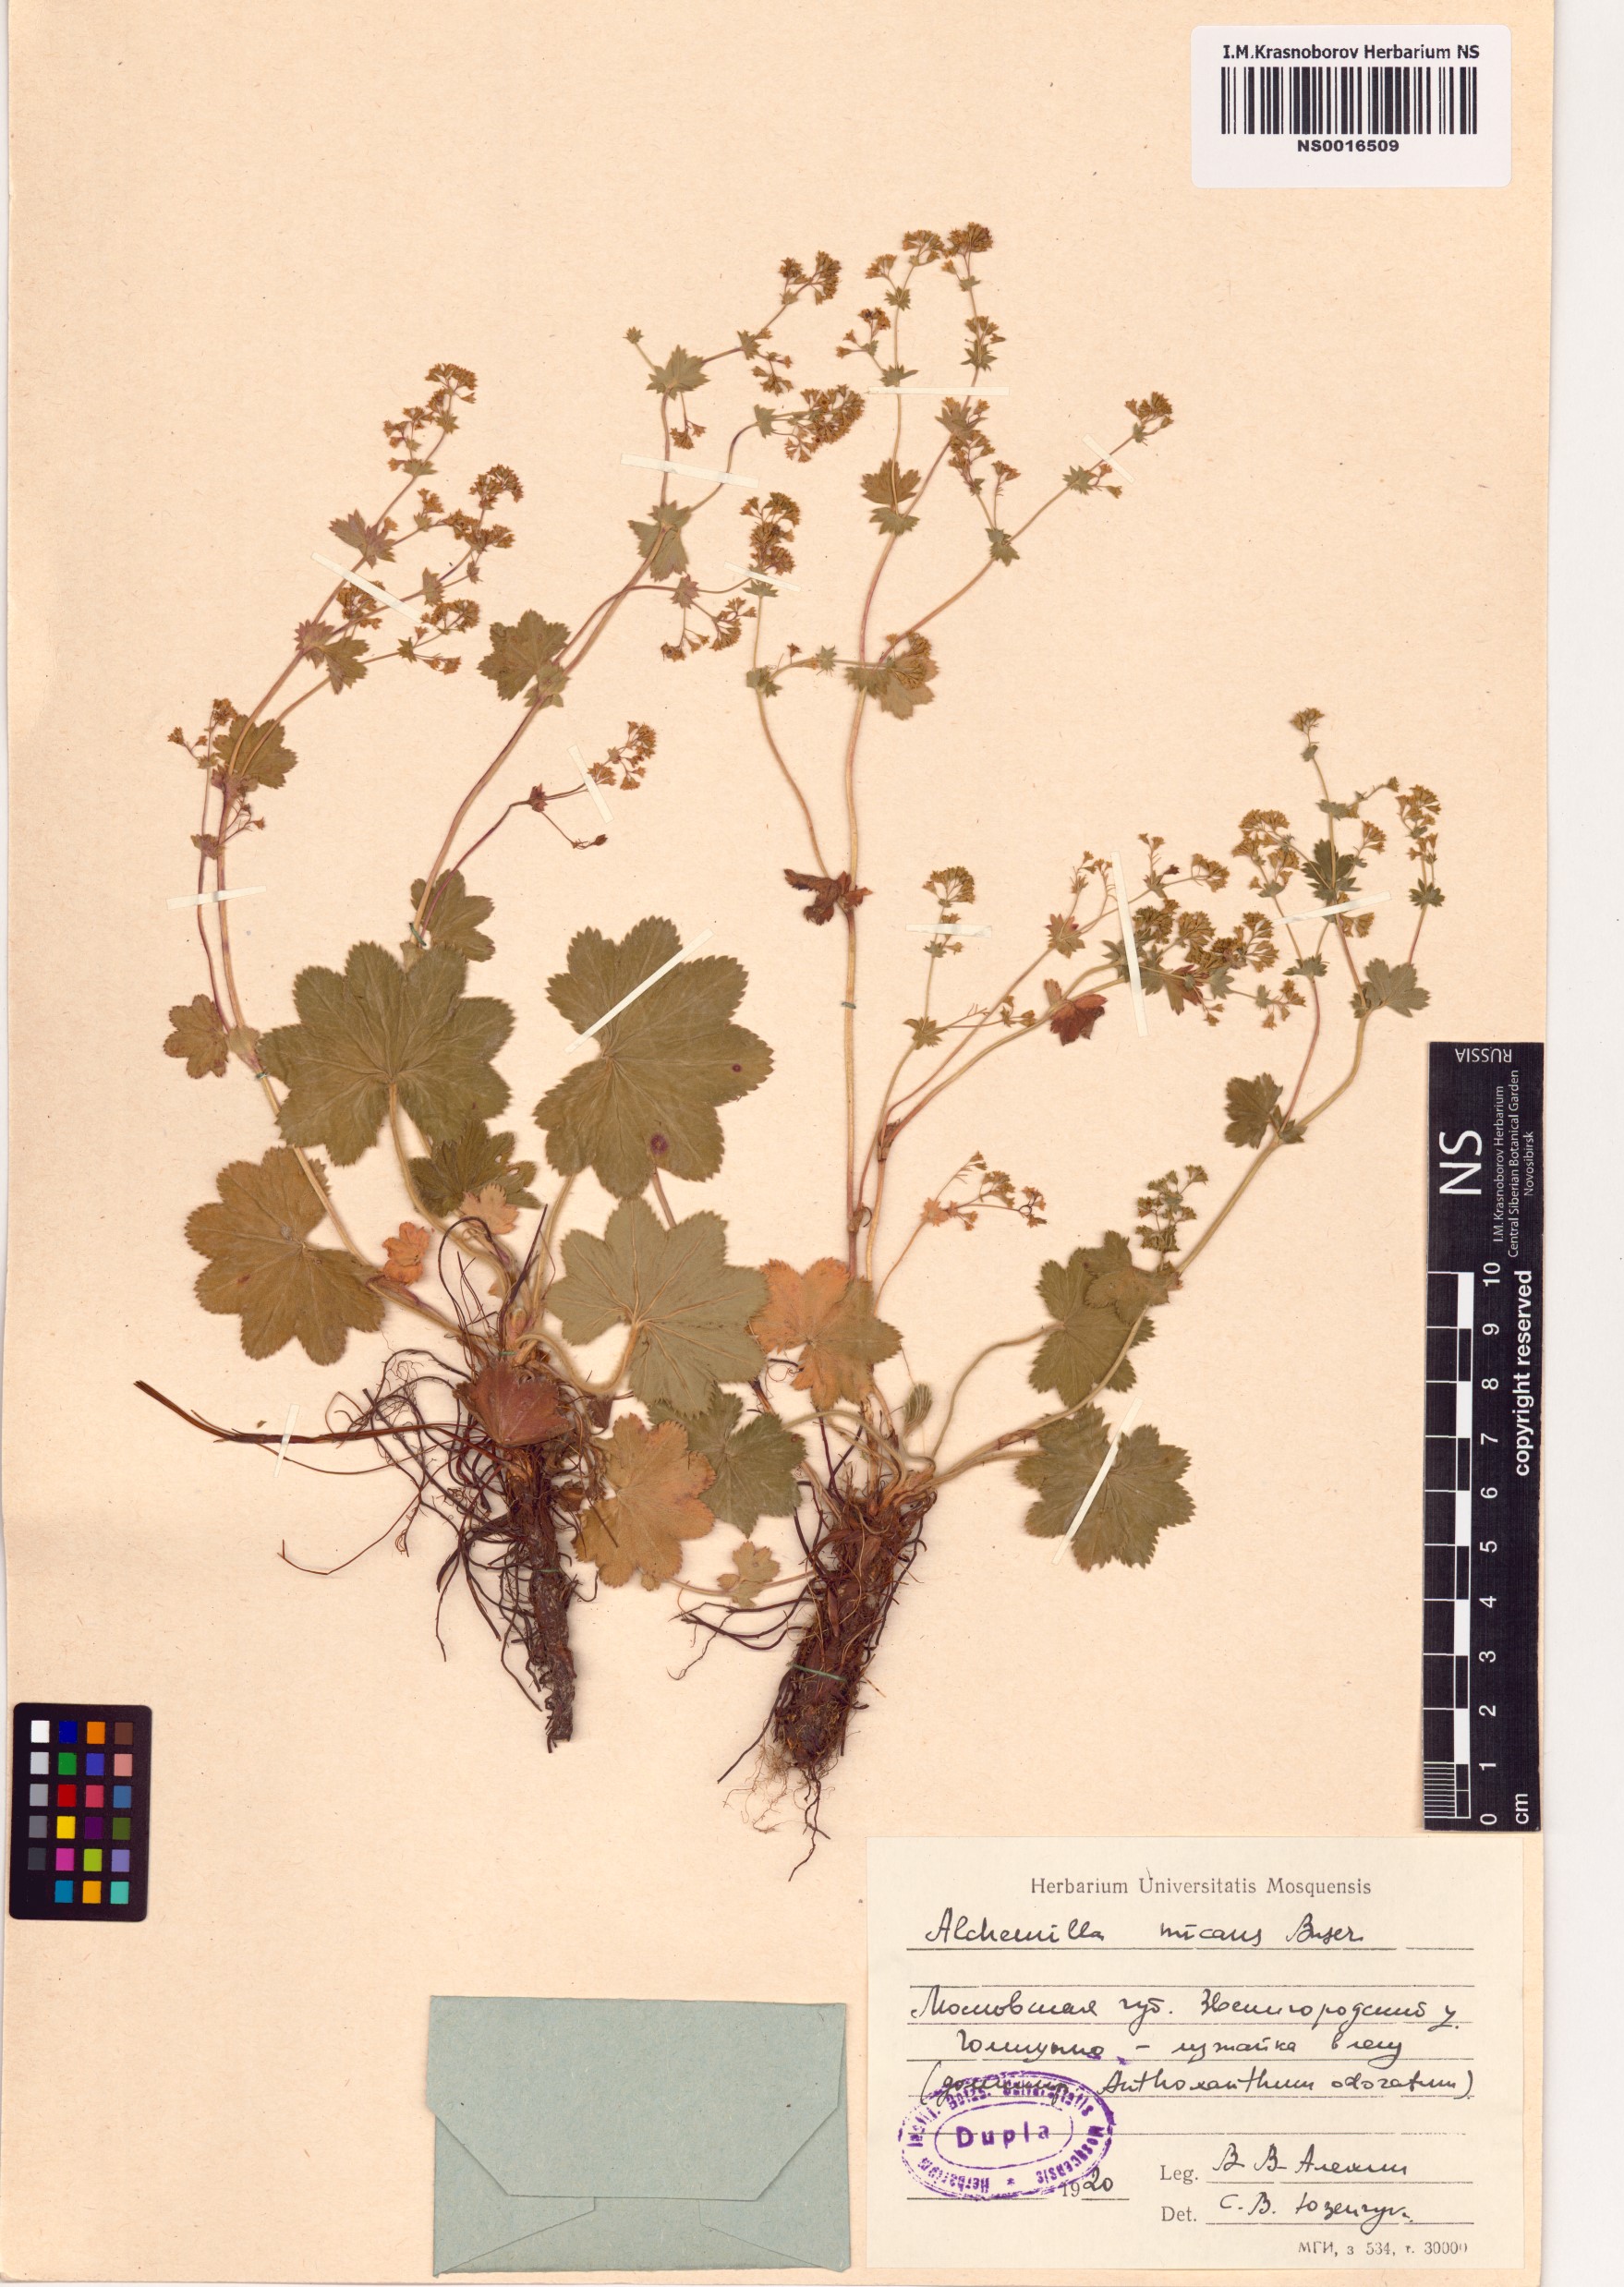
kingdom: Plantae
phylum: Tracheophyta
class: Magnoliopsida
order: Rosales
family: Rosaceae
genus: Alchemilla
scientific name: Alchemilla micans
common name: Gleaming lady's mantle
